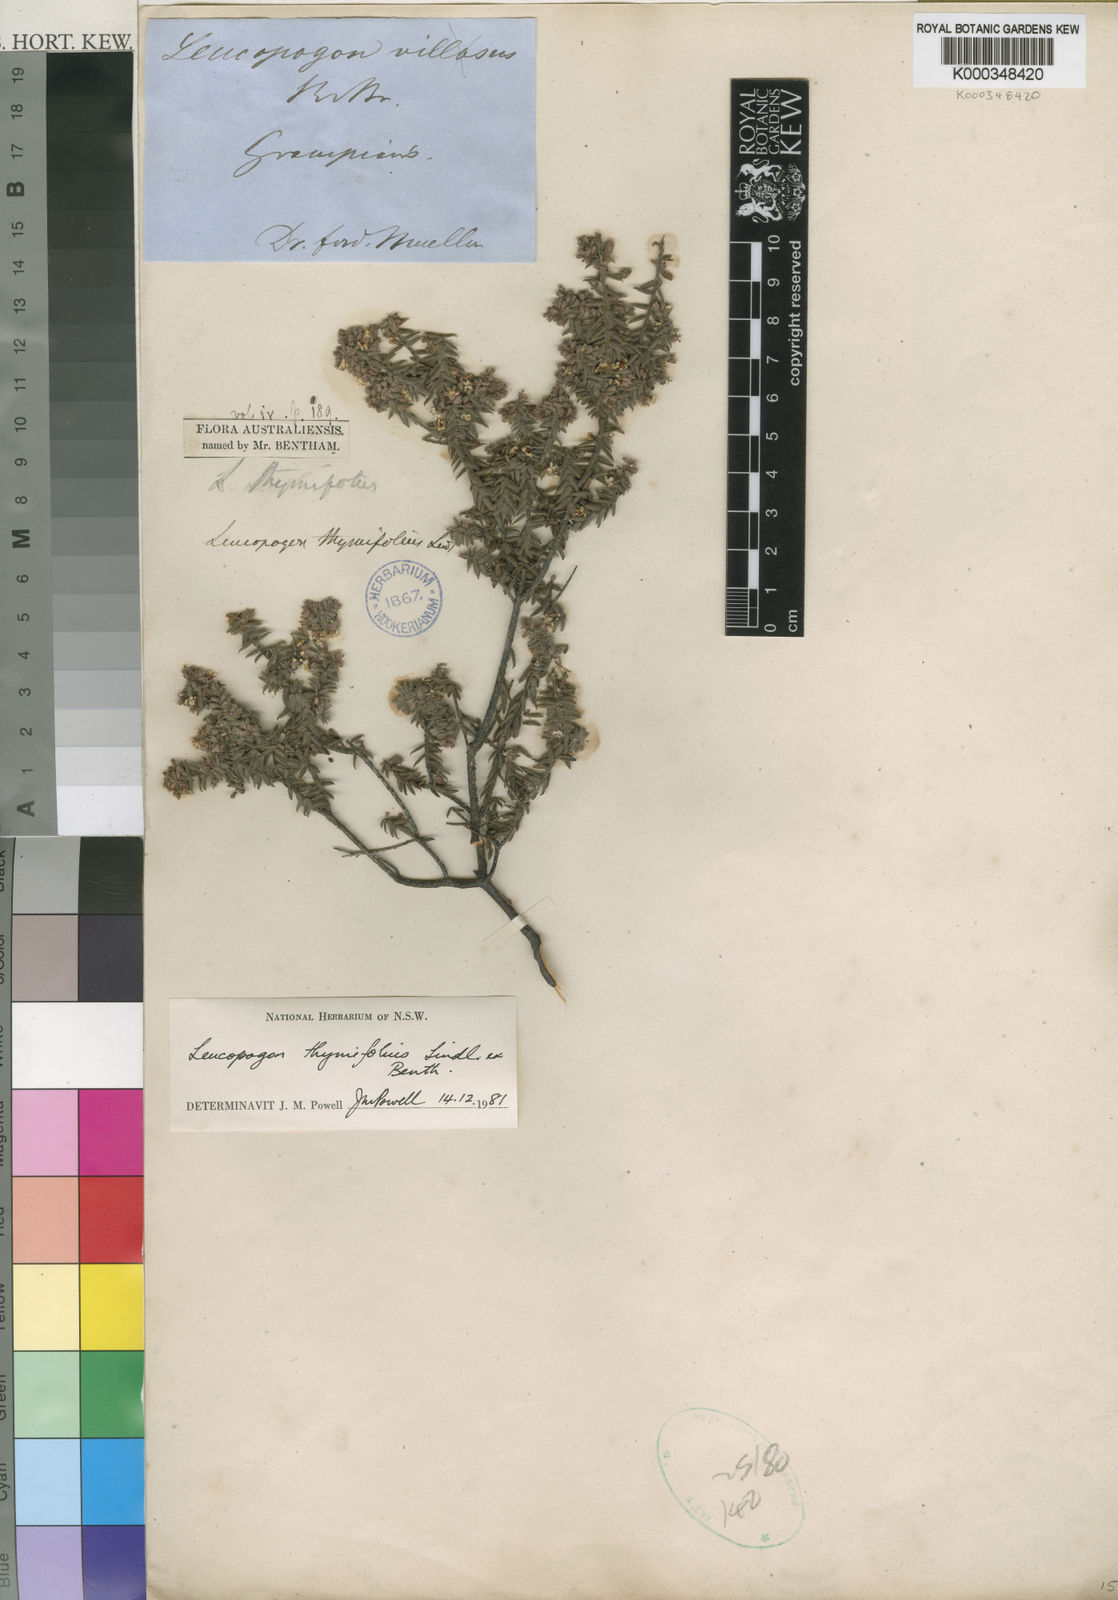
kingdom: Plantae
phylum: Tracheophyta
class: Magnoliopsida
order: Ericales
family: Ericaceae
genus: Leucopogon
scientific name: Leucopogon thymifolius
